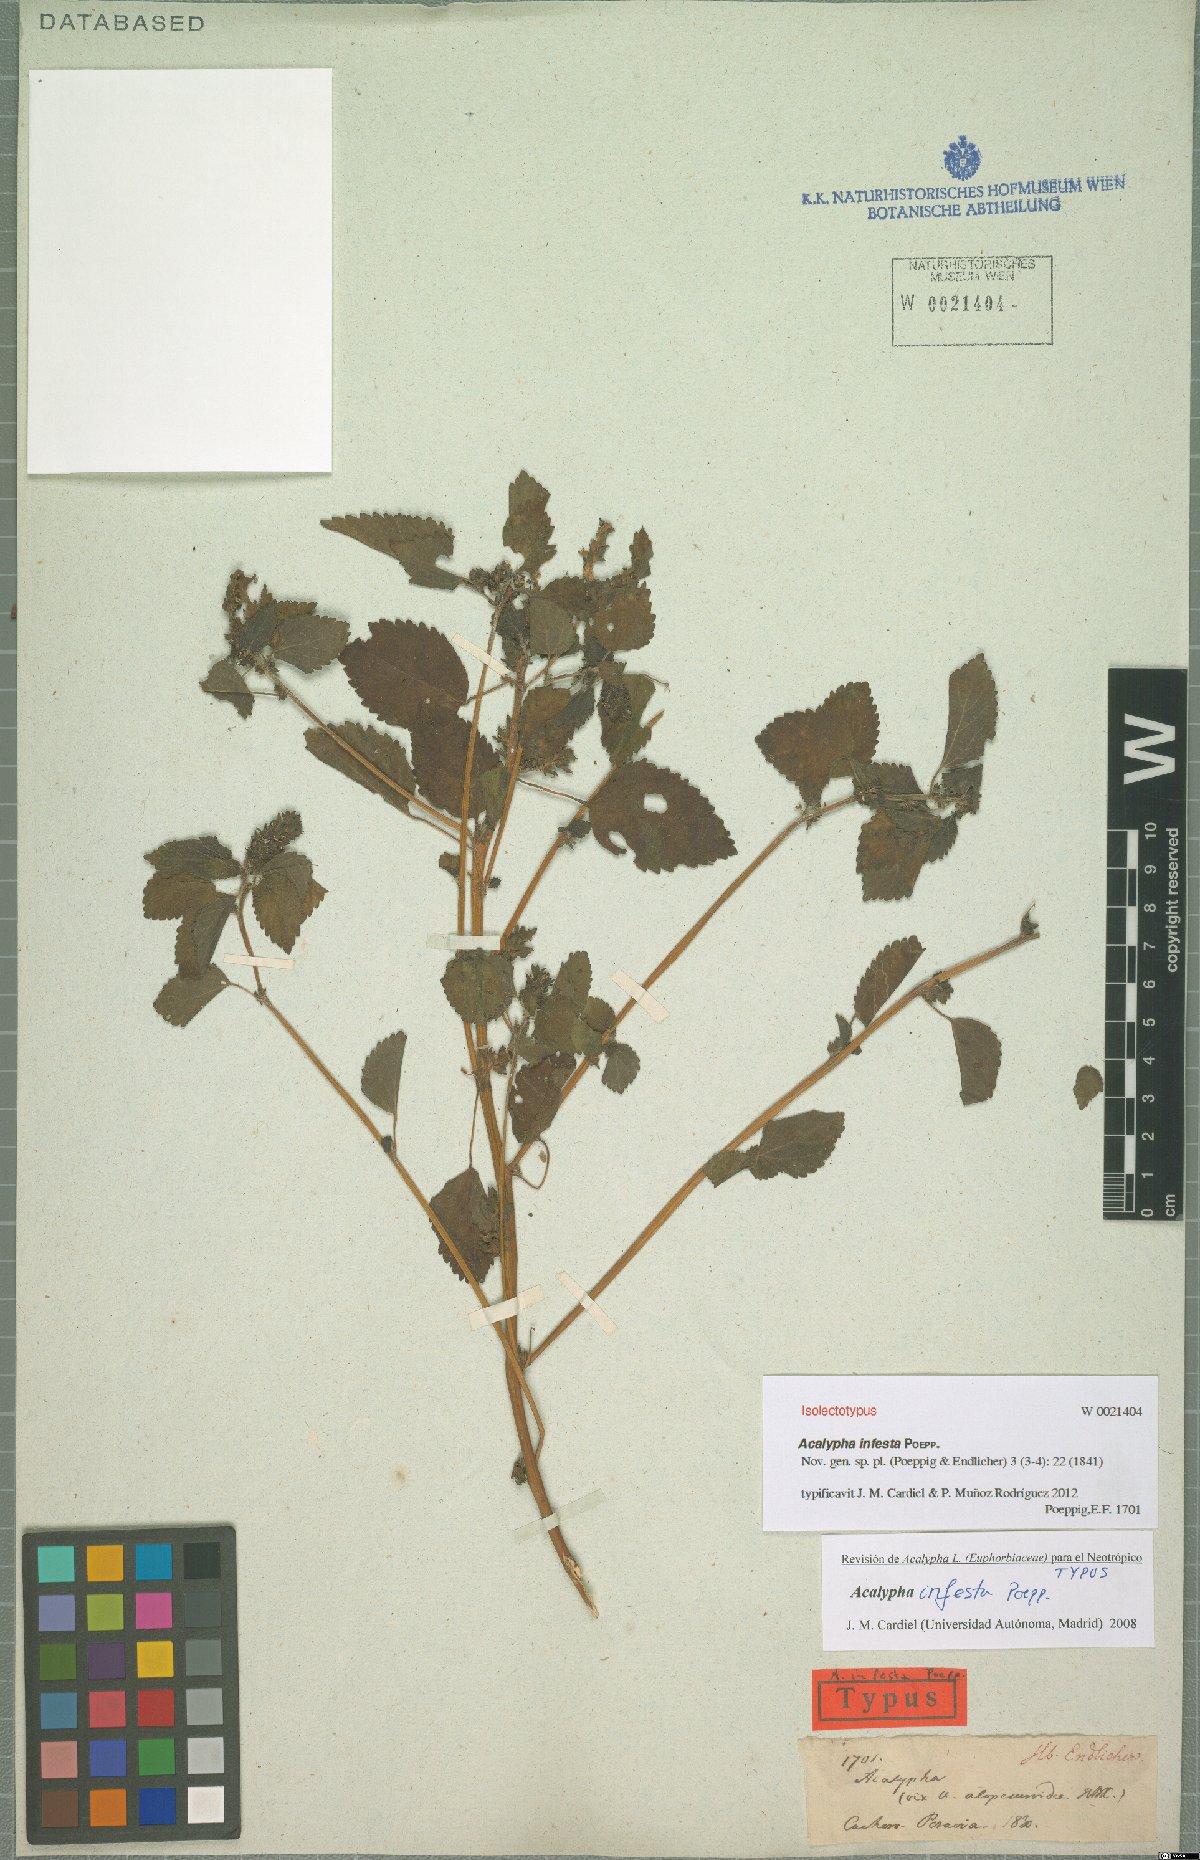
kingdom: Plantae
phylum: Tracheophyta
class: Magnoliopsida
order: Malpighiales
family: Euphorbiaceae
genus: Acalypha
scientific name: Acalypha infesta
